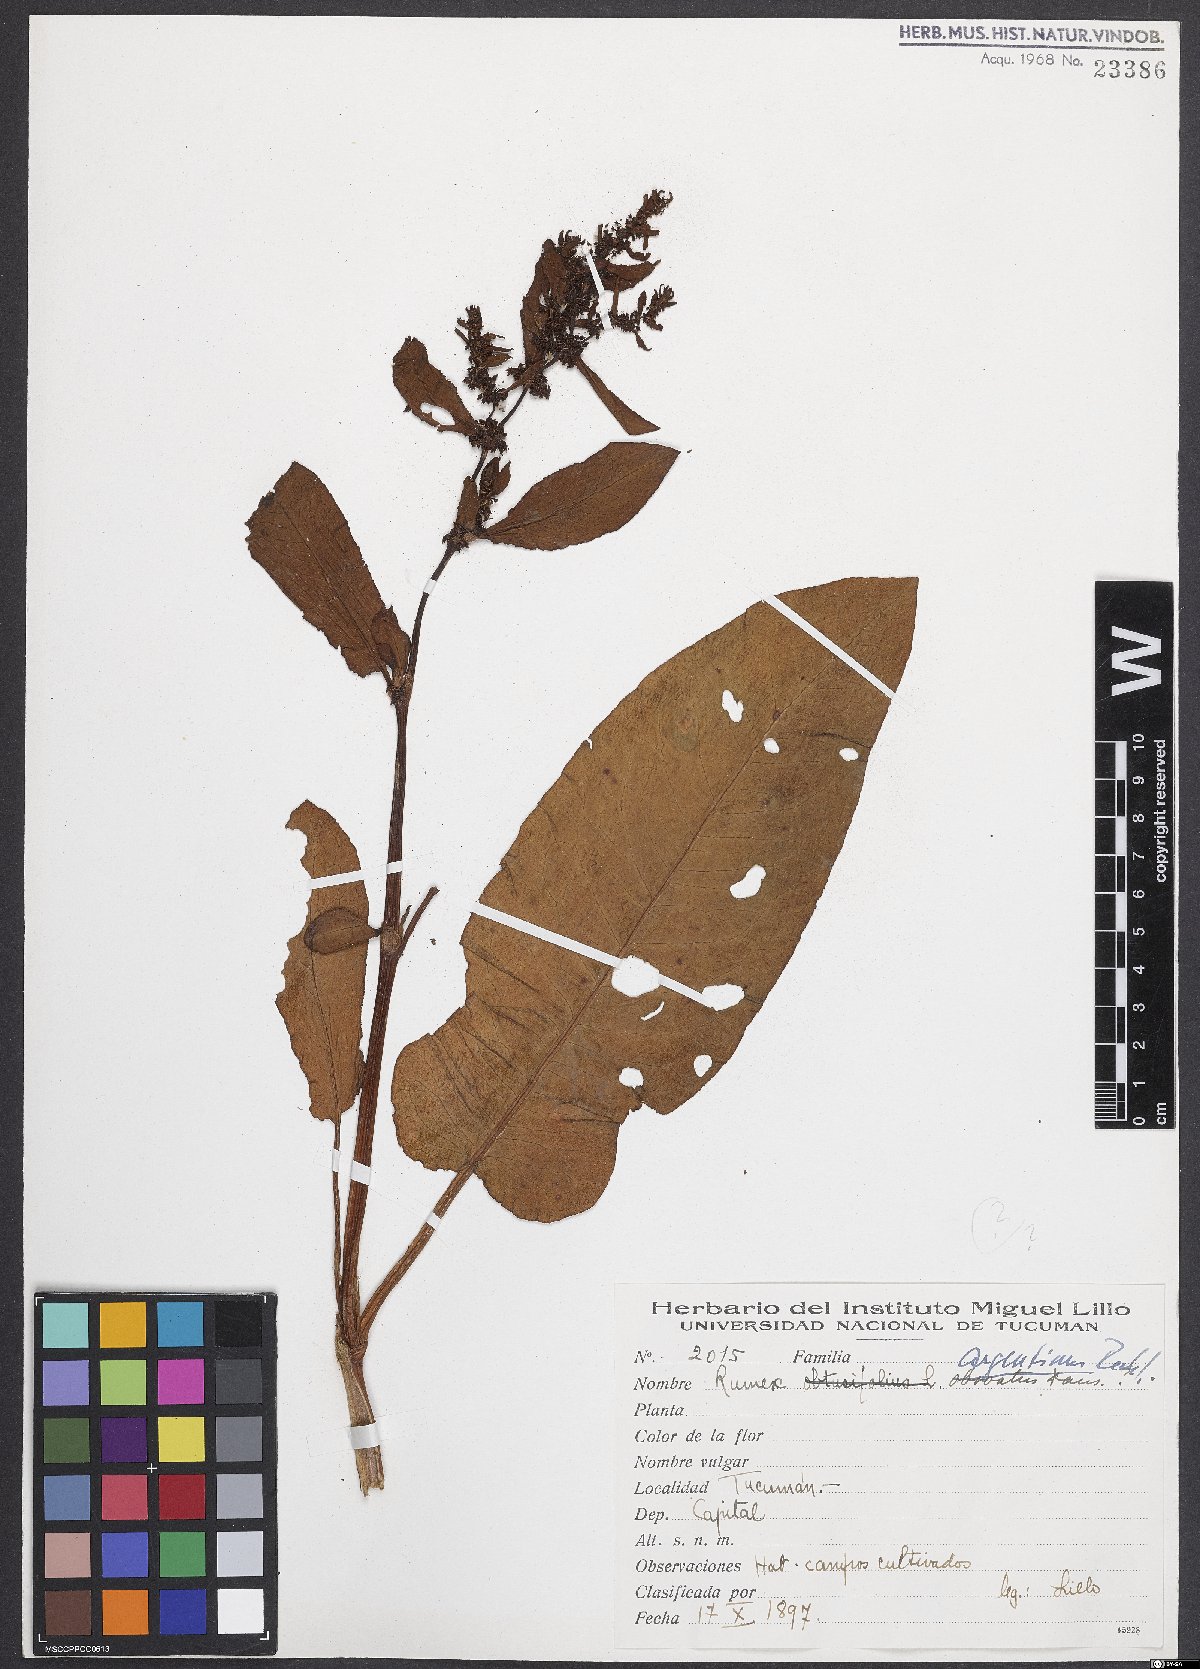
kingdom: Plantae
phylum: Tracheophyta
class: Magnoliopsida
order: Caryophyllales
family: Polygonaceae
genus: Rumex
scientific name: Rumex argentinus
